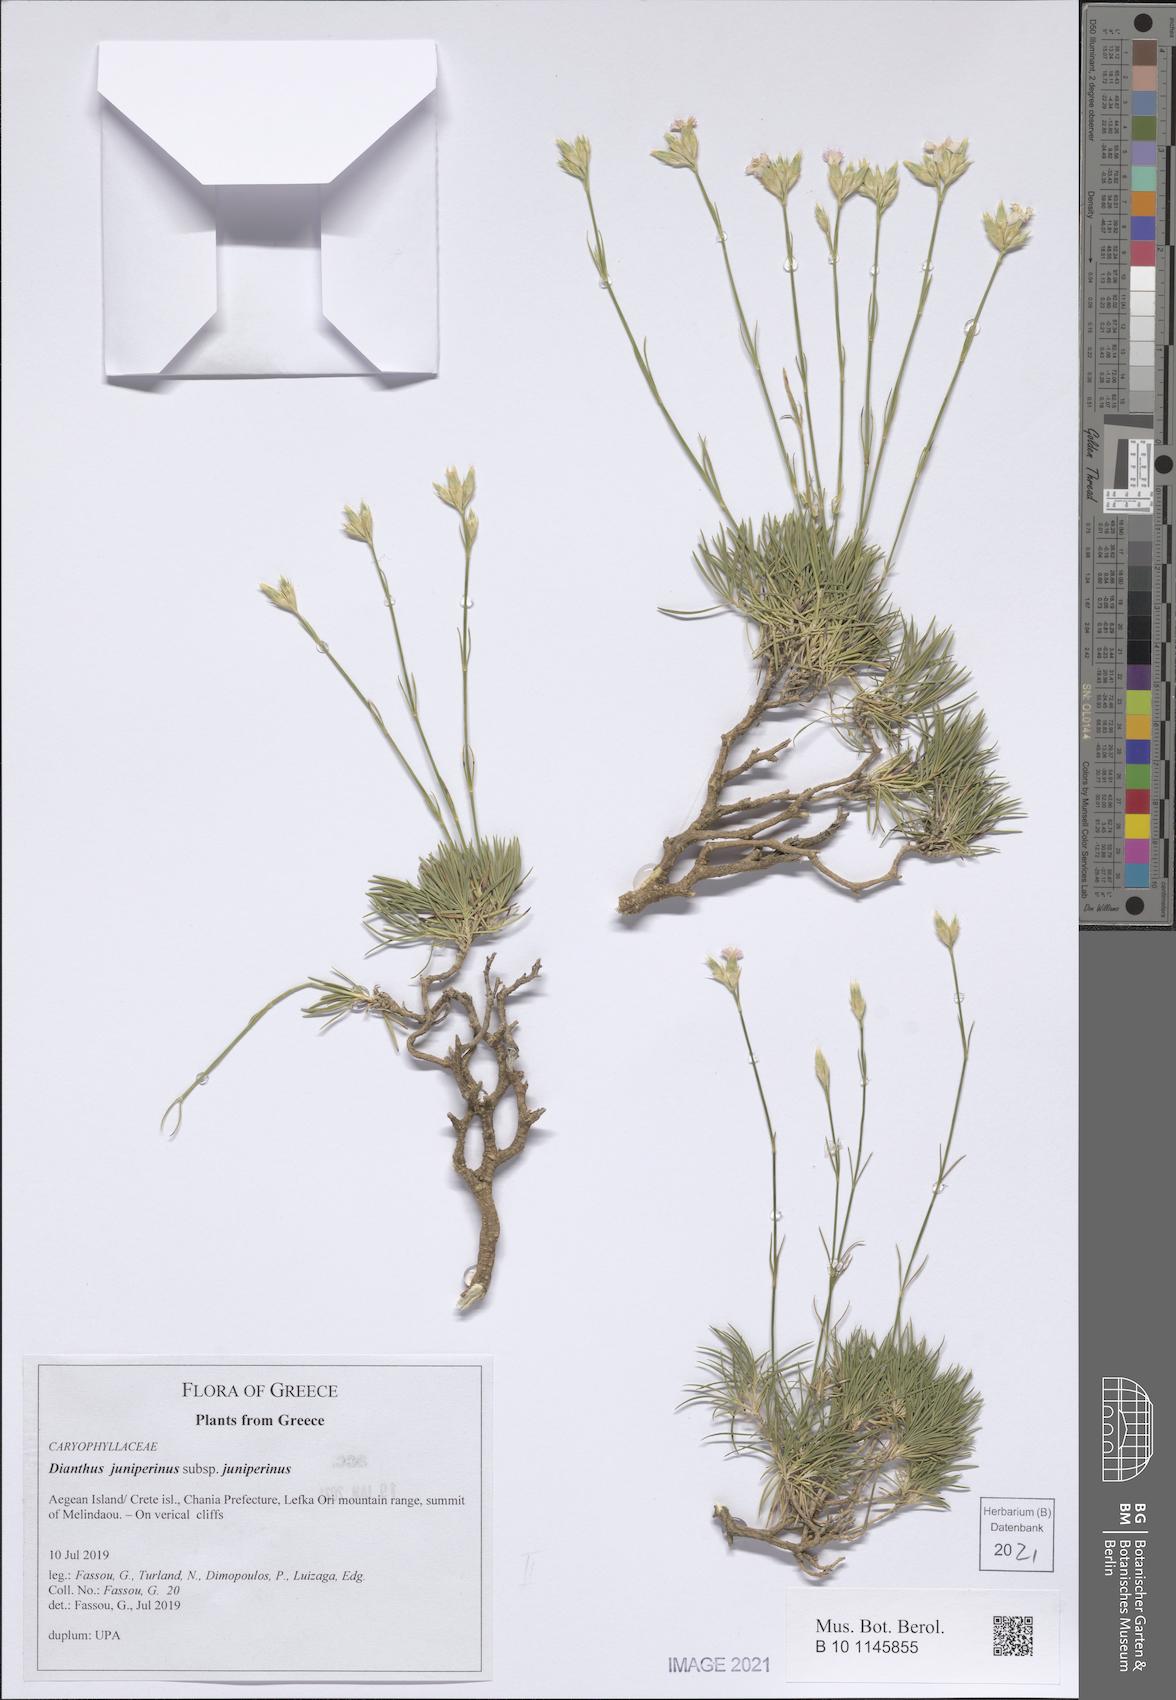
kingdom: Plantae
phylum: Tracheophyta
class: Magnoliopsida
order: Caryophyllales
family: Caryophyllaceae
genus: Dianthus
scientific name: Dianthus juniperinus
